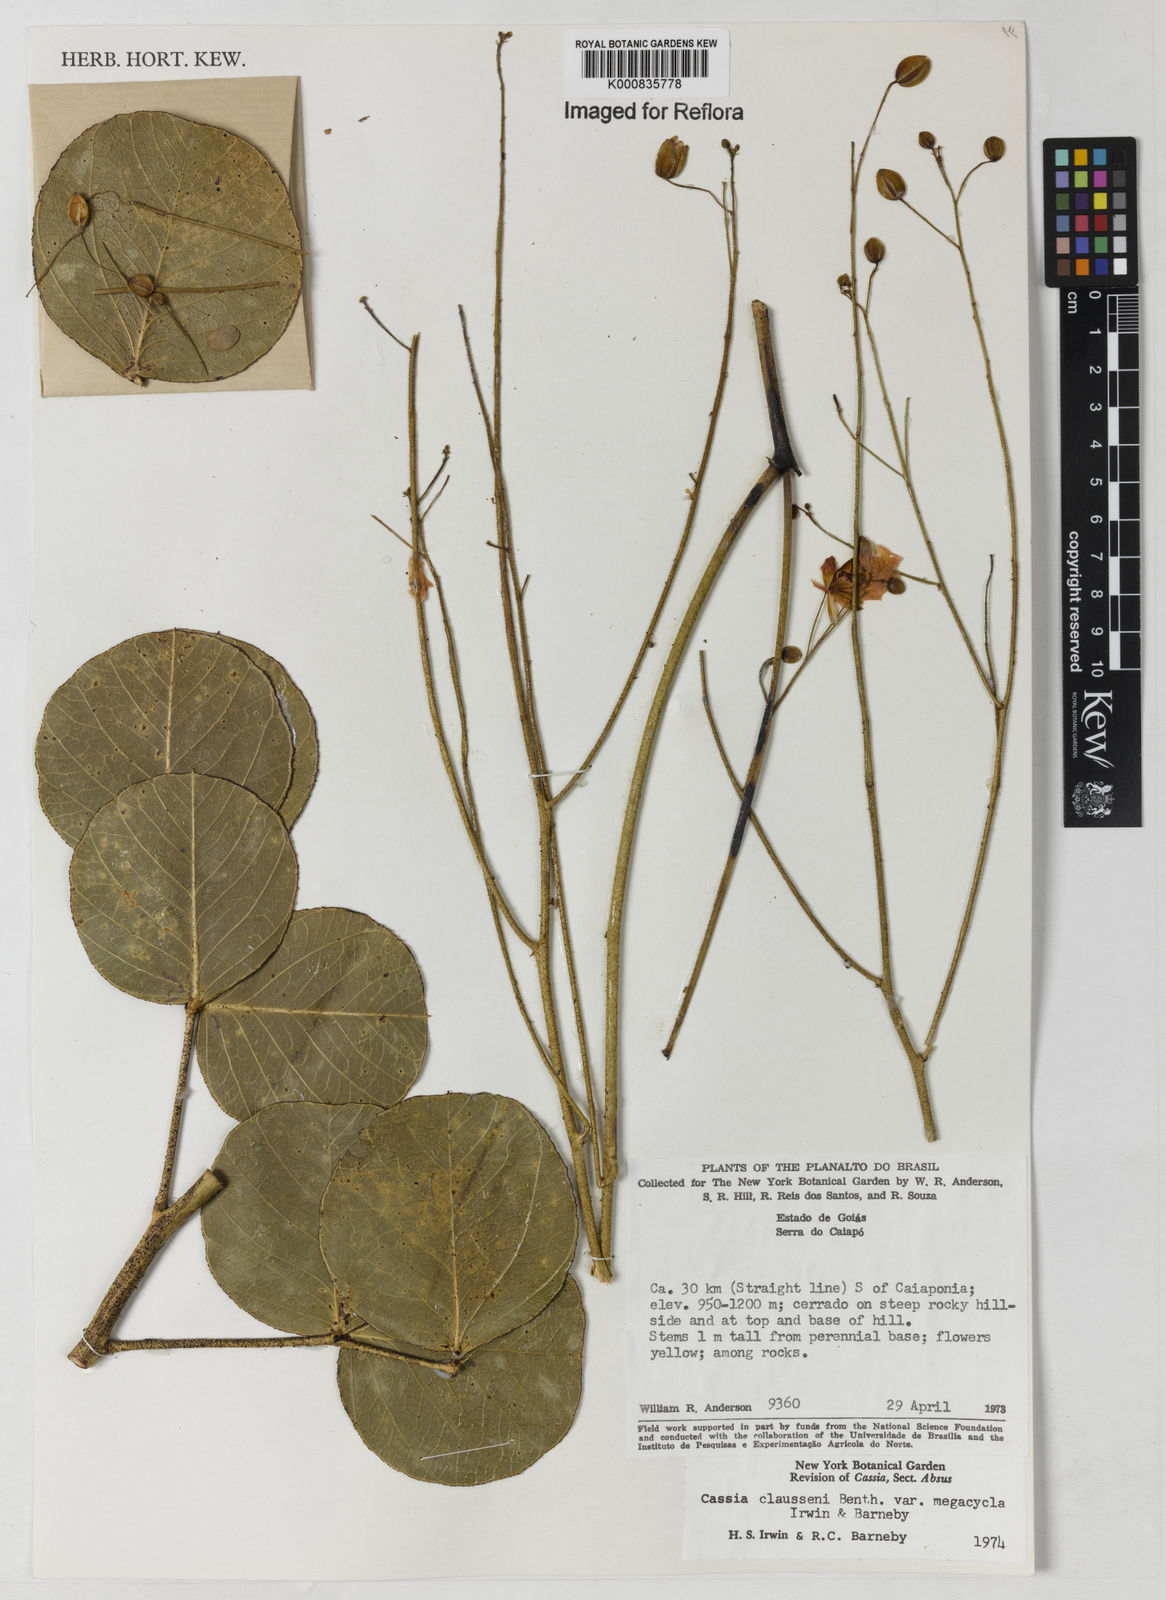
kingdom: Plantae
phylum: Tracheophyta
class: Magnoliopsida
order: Fabales
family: Fabaceae
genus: Chamaecrista
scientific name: Chamaecrista megacycla
